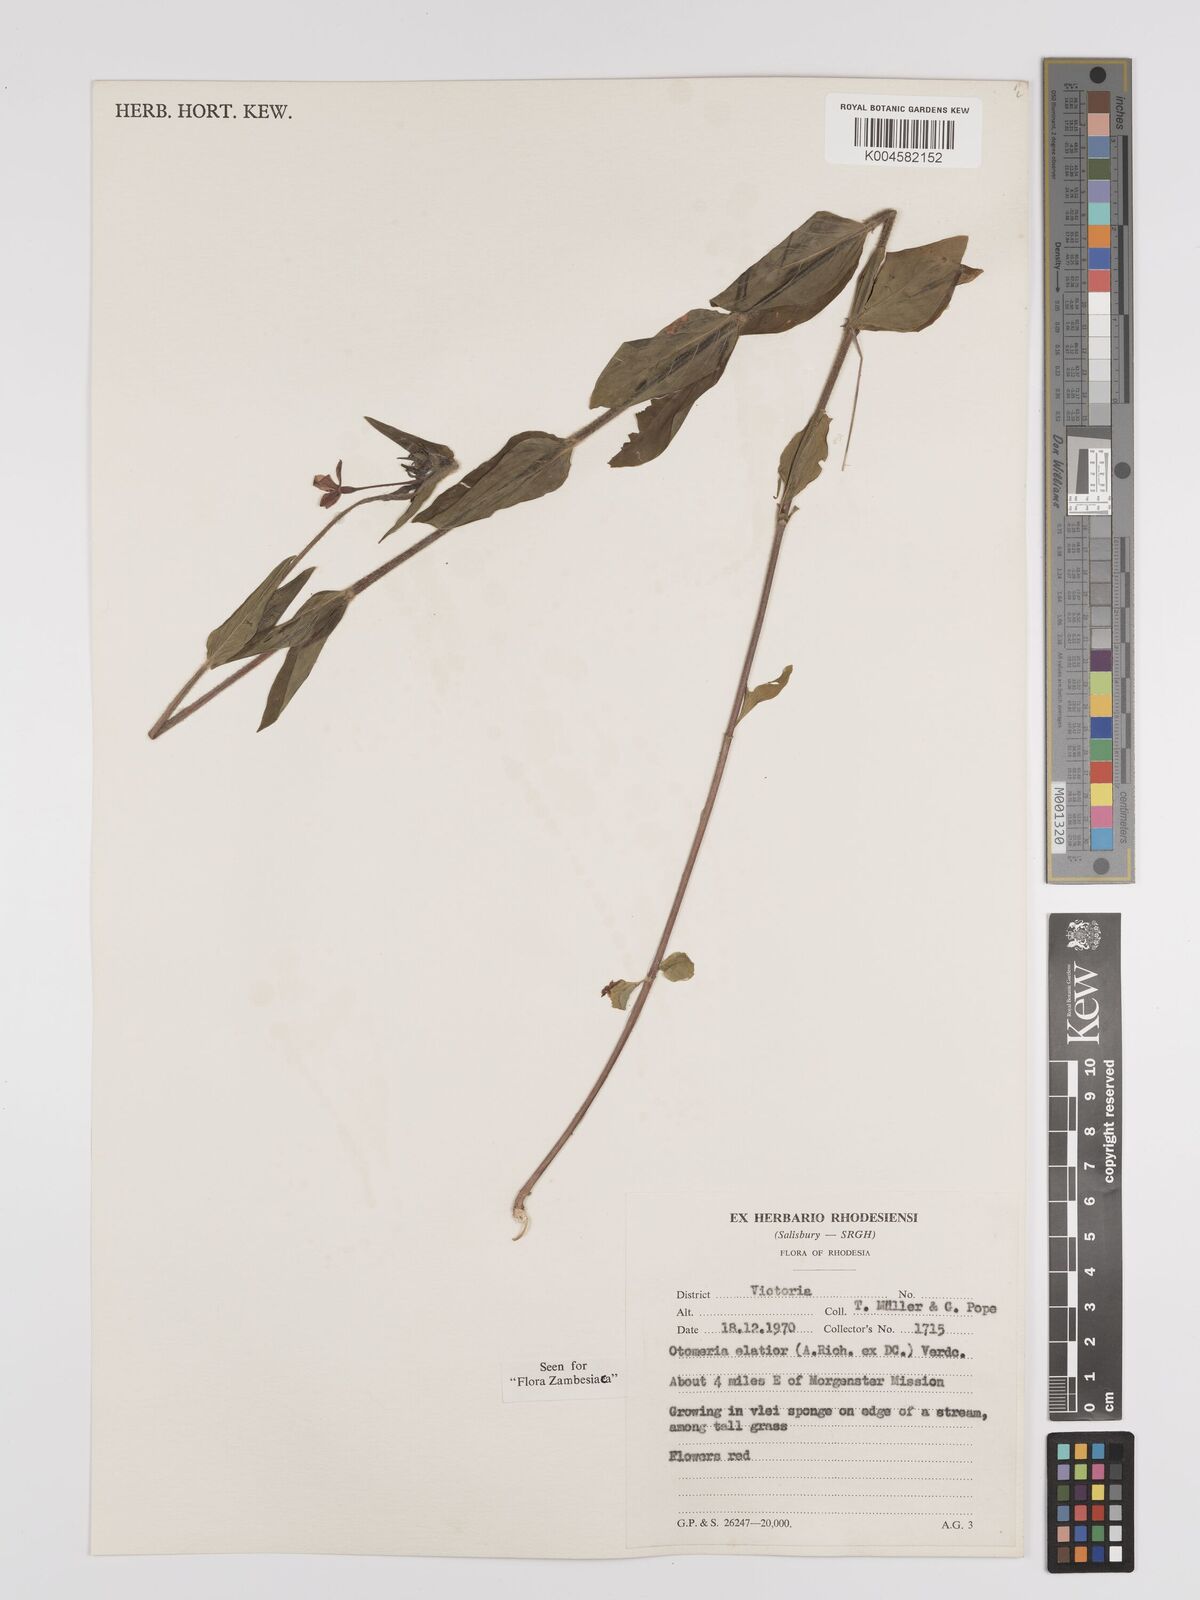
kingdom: Plantae
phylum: Tracheophyta
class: Magnoliopsida
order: Gentianales
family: Rubiaceae
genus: Otomeria
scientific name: Otomeria elatior
